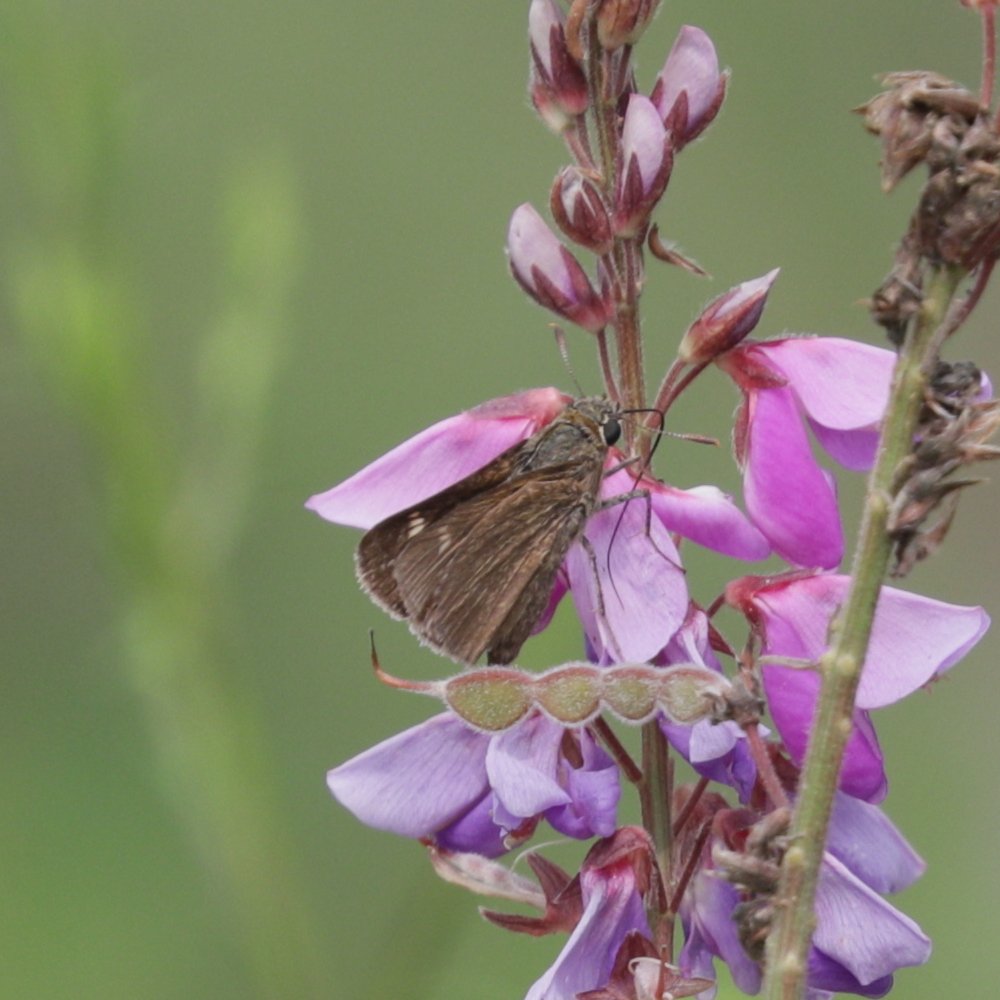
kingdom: Animalia
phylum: Arthropoda
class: Insecta
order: Lepidoptera
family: Hesperiidae
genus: Polites
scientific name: Polites egeremet
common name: Northern Broken-Dash
